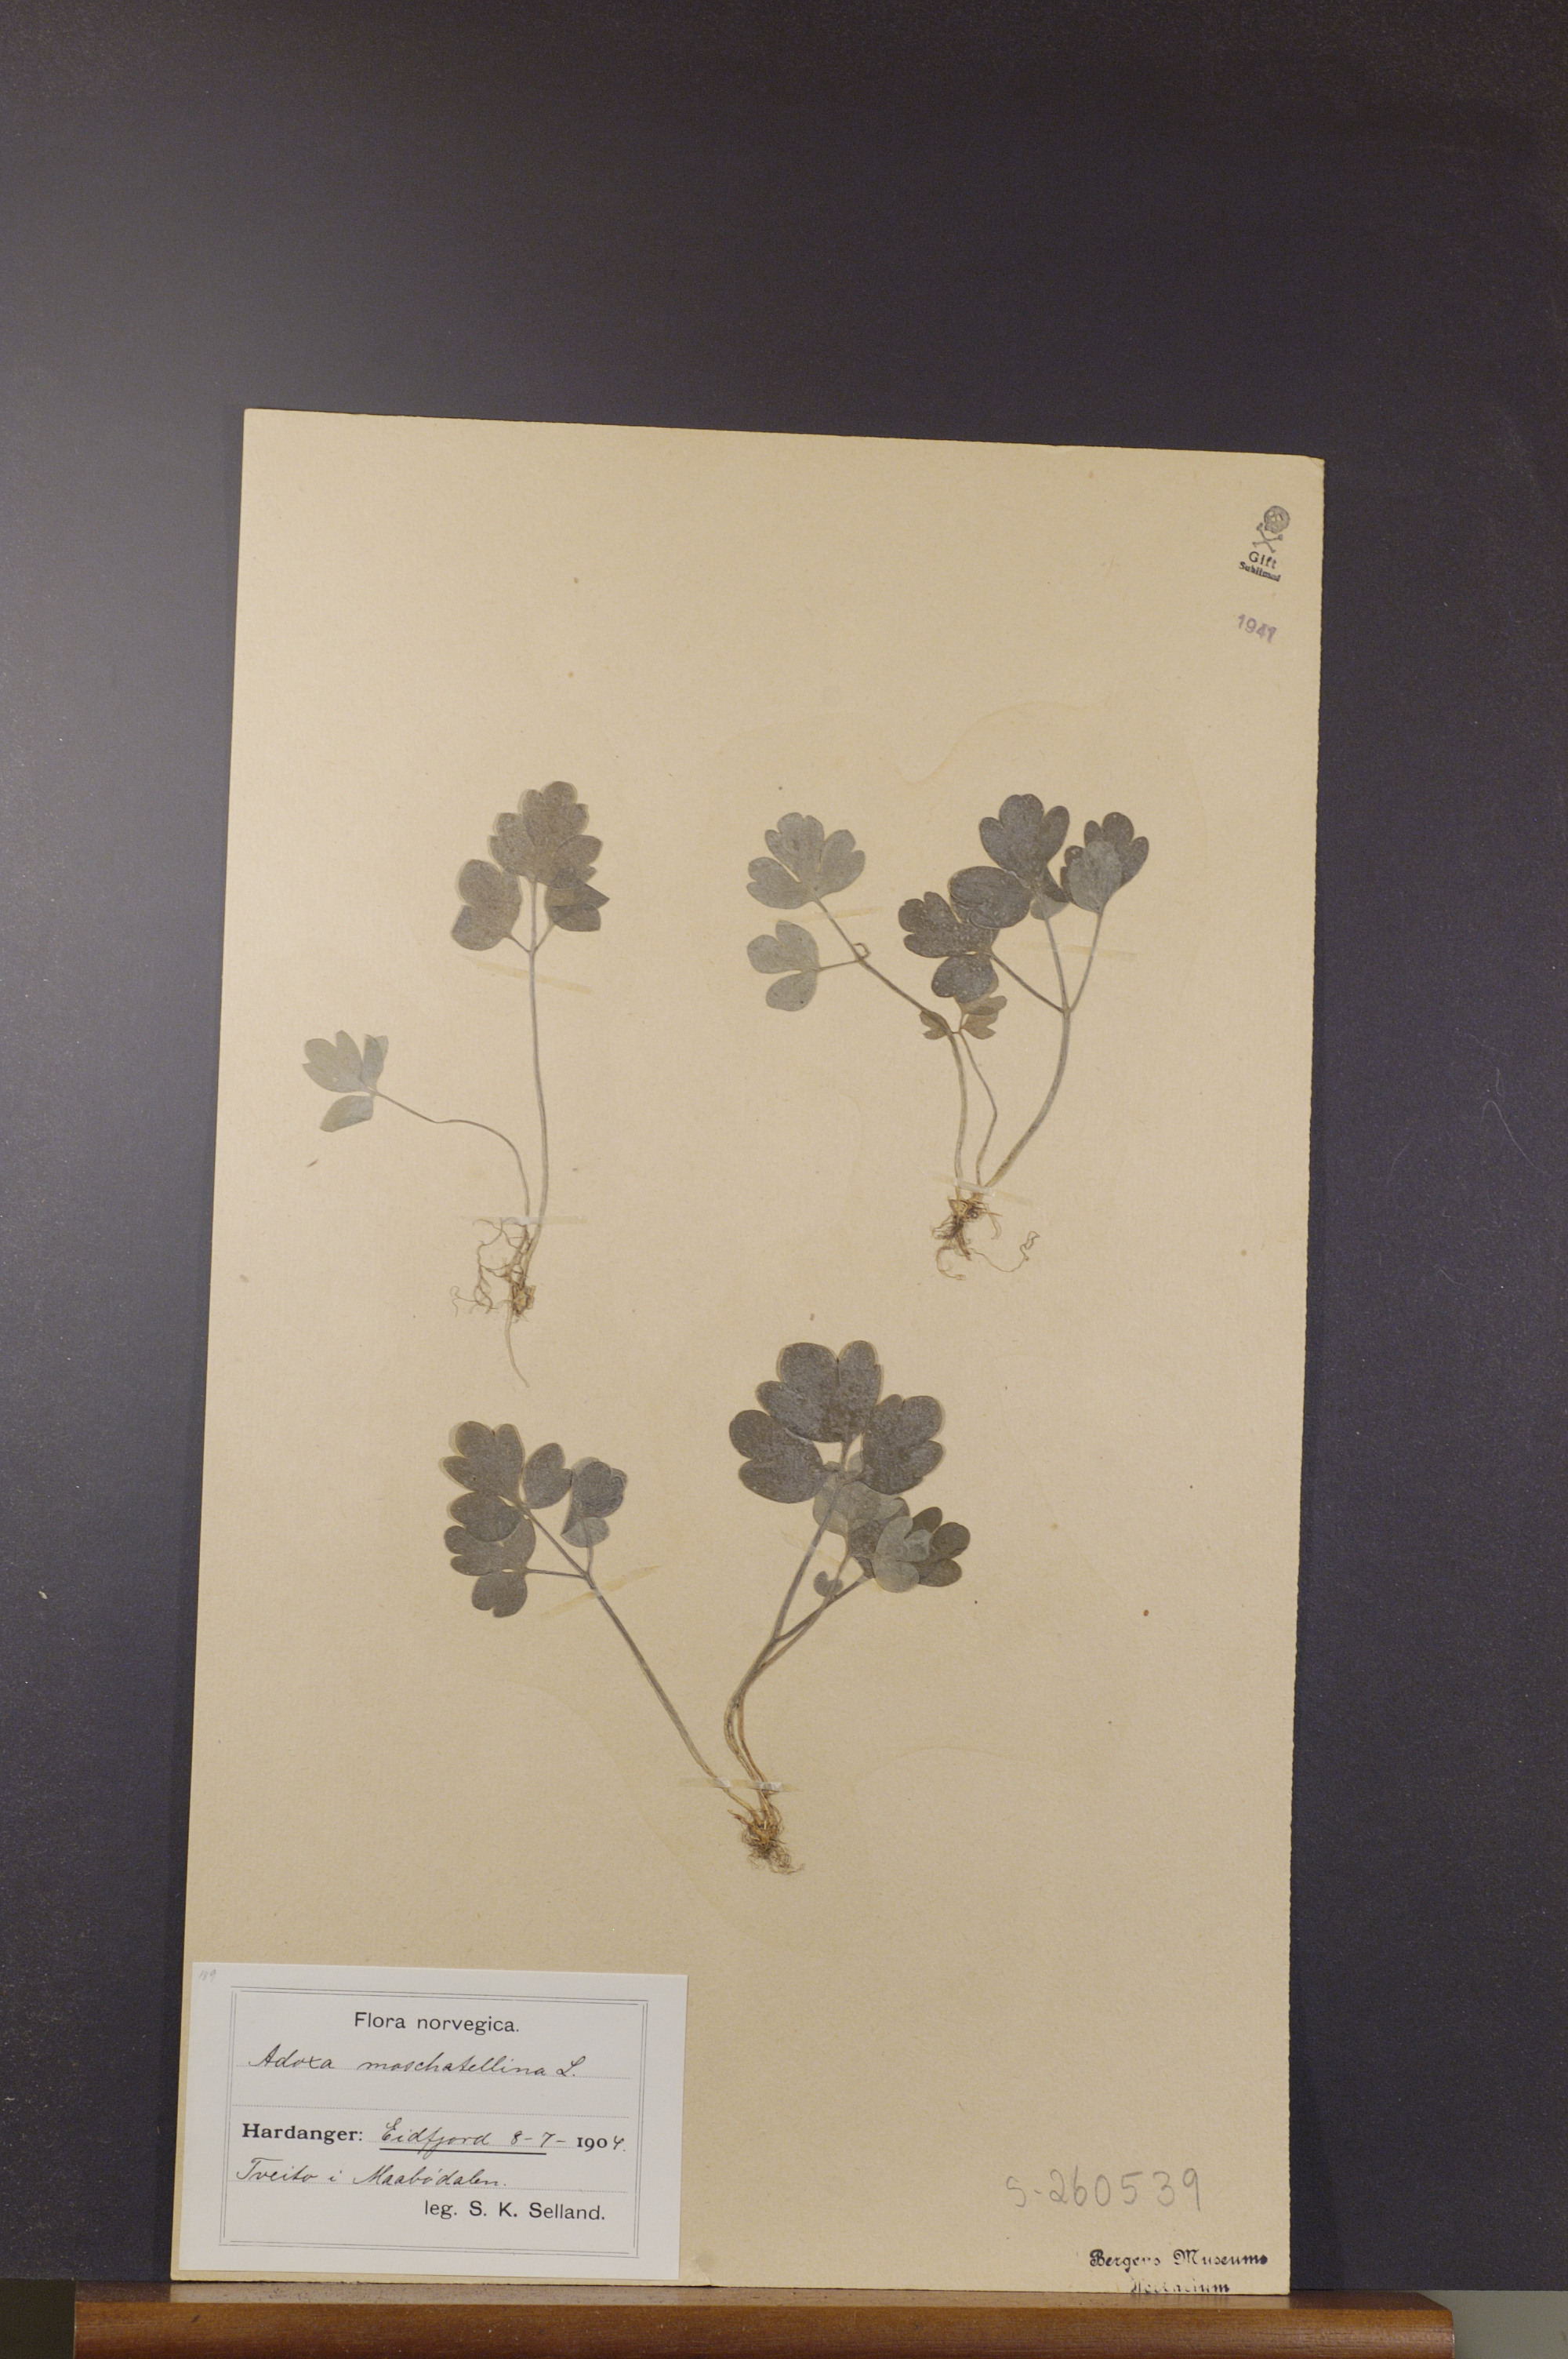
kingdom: Plantae
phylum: Tracheophyta
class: Magnoliopsida
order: Dipsacales
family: Viburnaceae
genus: Adoxa
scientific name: Adoxa moschatellina
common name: Moschatel
